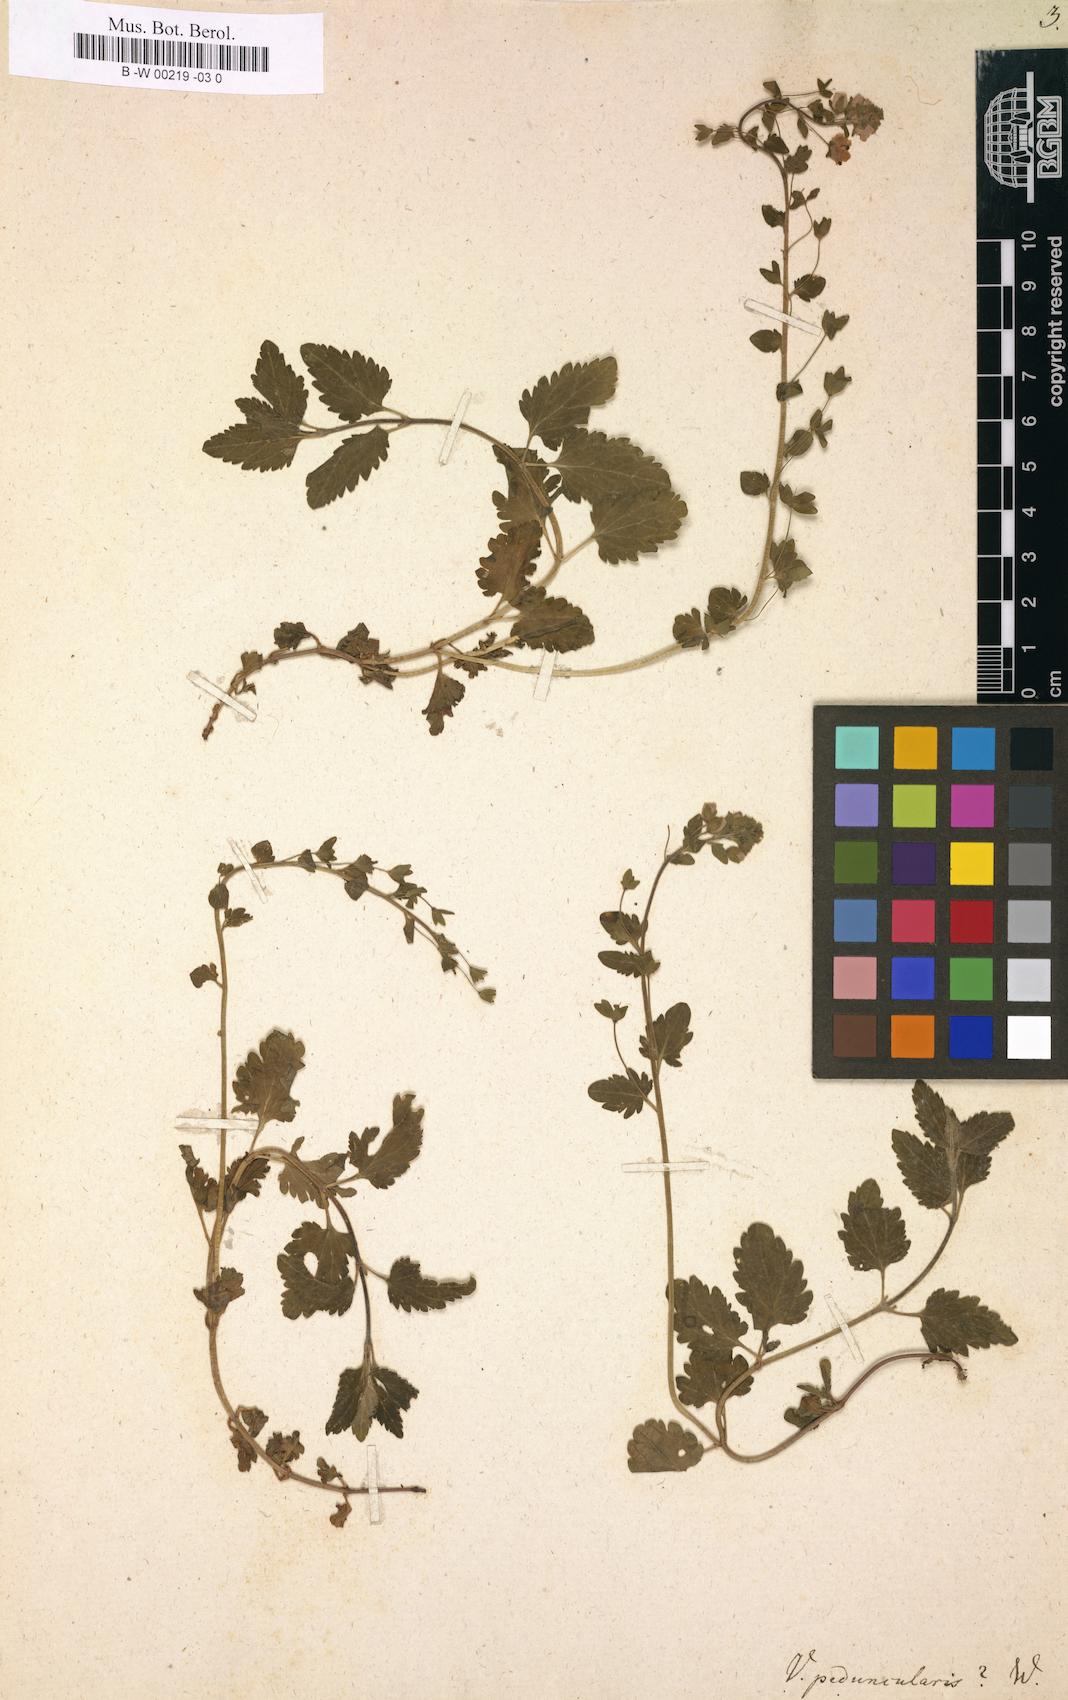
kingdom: Plantae
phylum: Tracheophyta
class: Magnoliopsida
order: Lamiales
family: Plantaginaceae
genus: Veronica
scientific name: Veronica peduncularis
